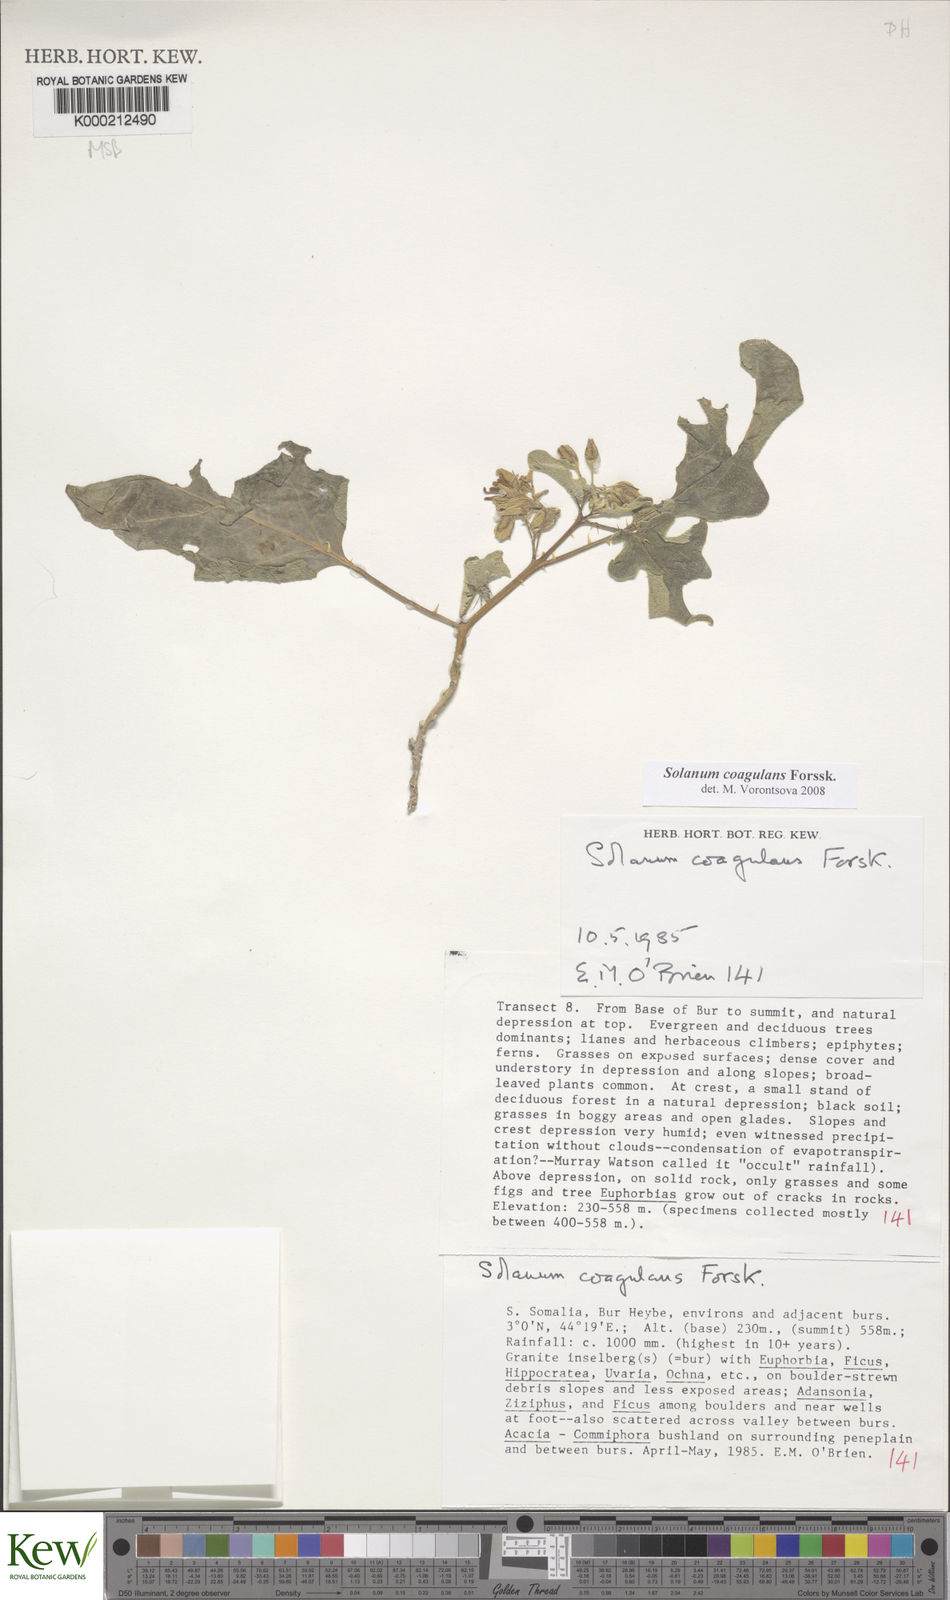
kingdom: Plantae
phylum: Tracheophyta
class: Magnoliopsida
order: Solanales
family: Solanaceae
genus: Solanum
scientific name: Solanum coagulans
